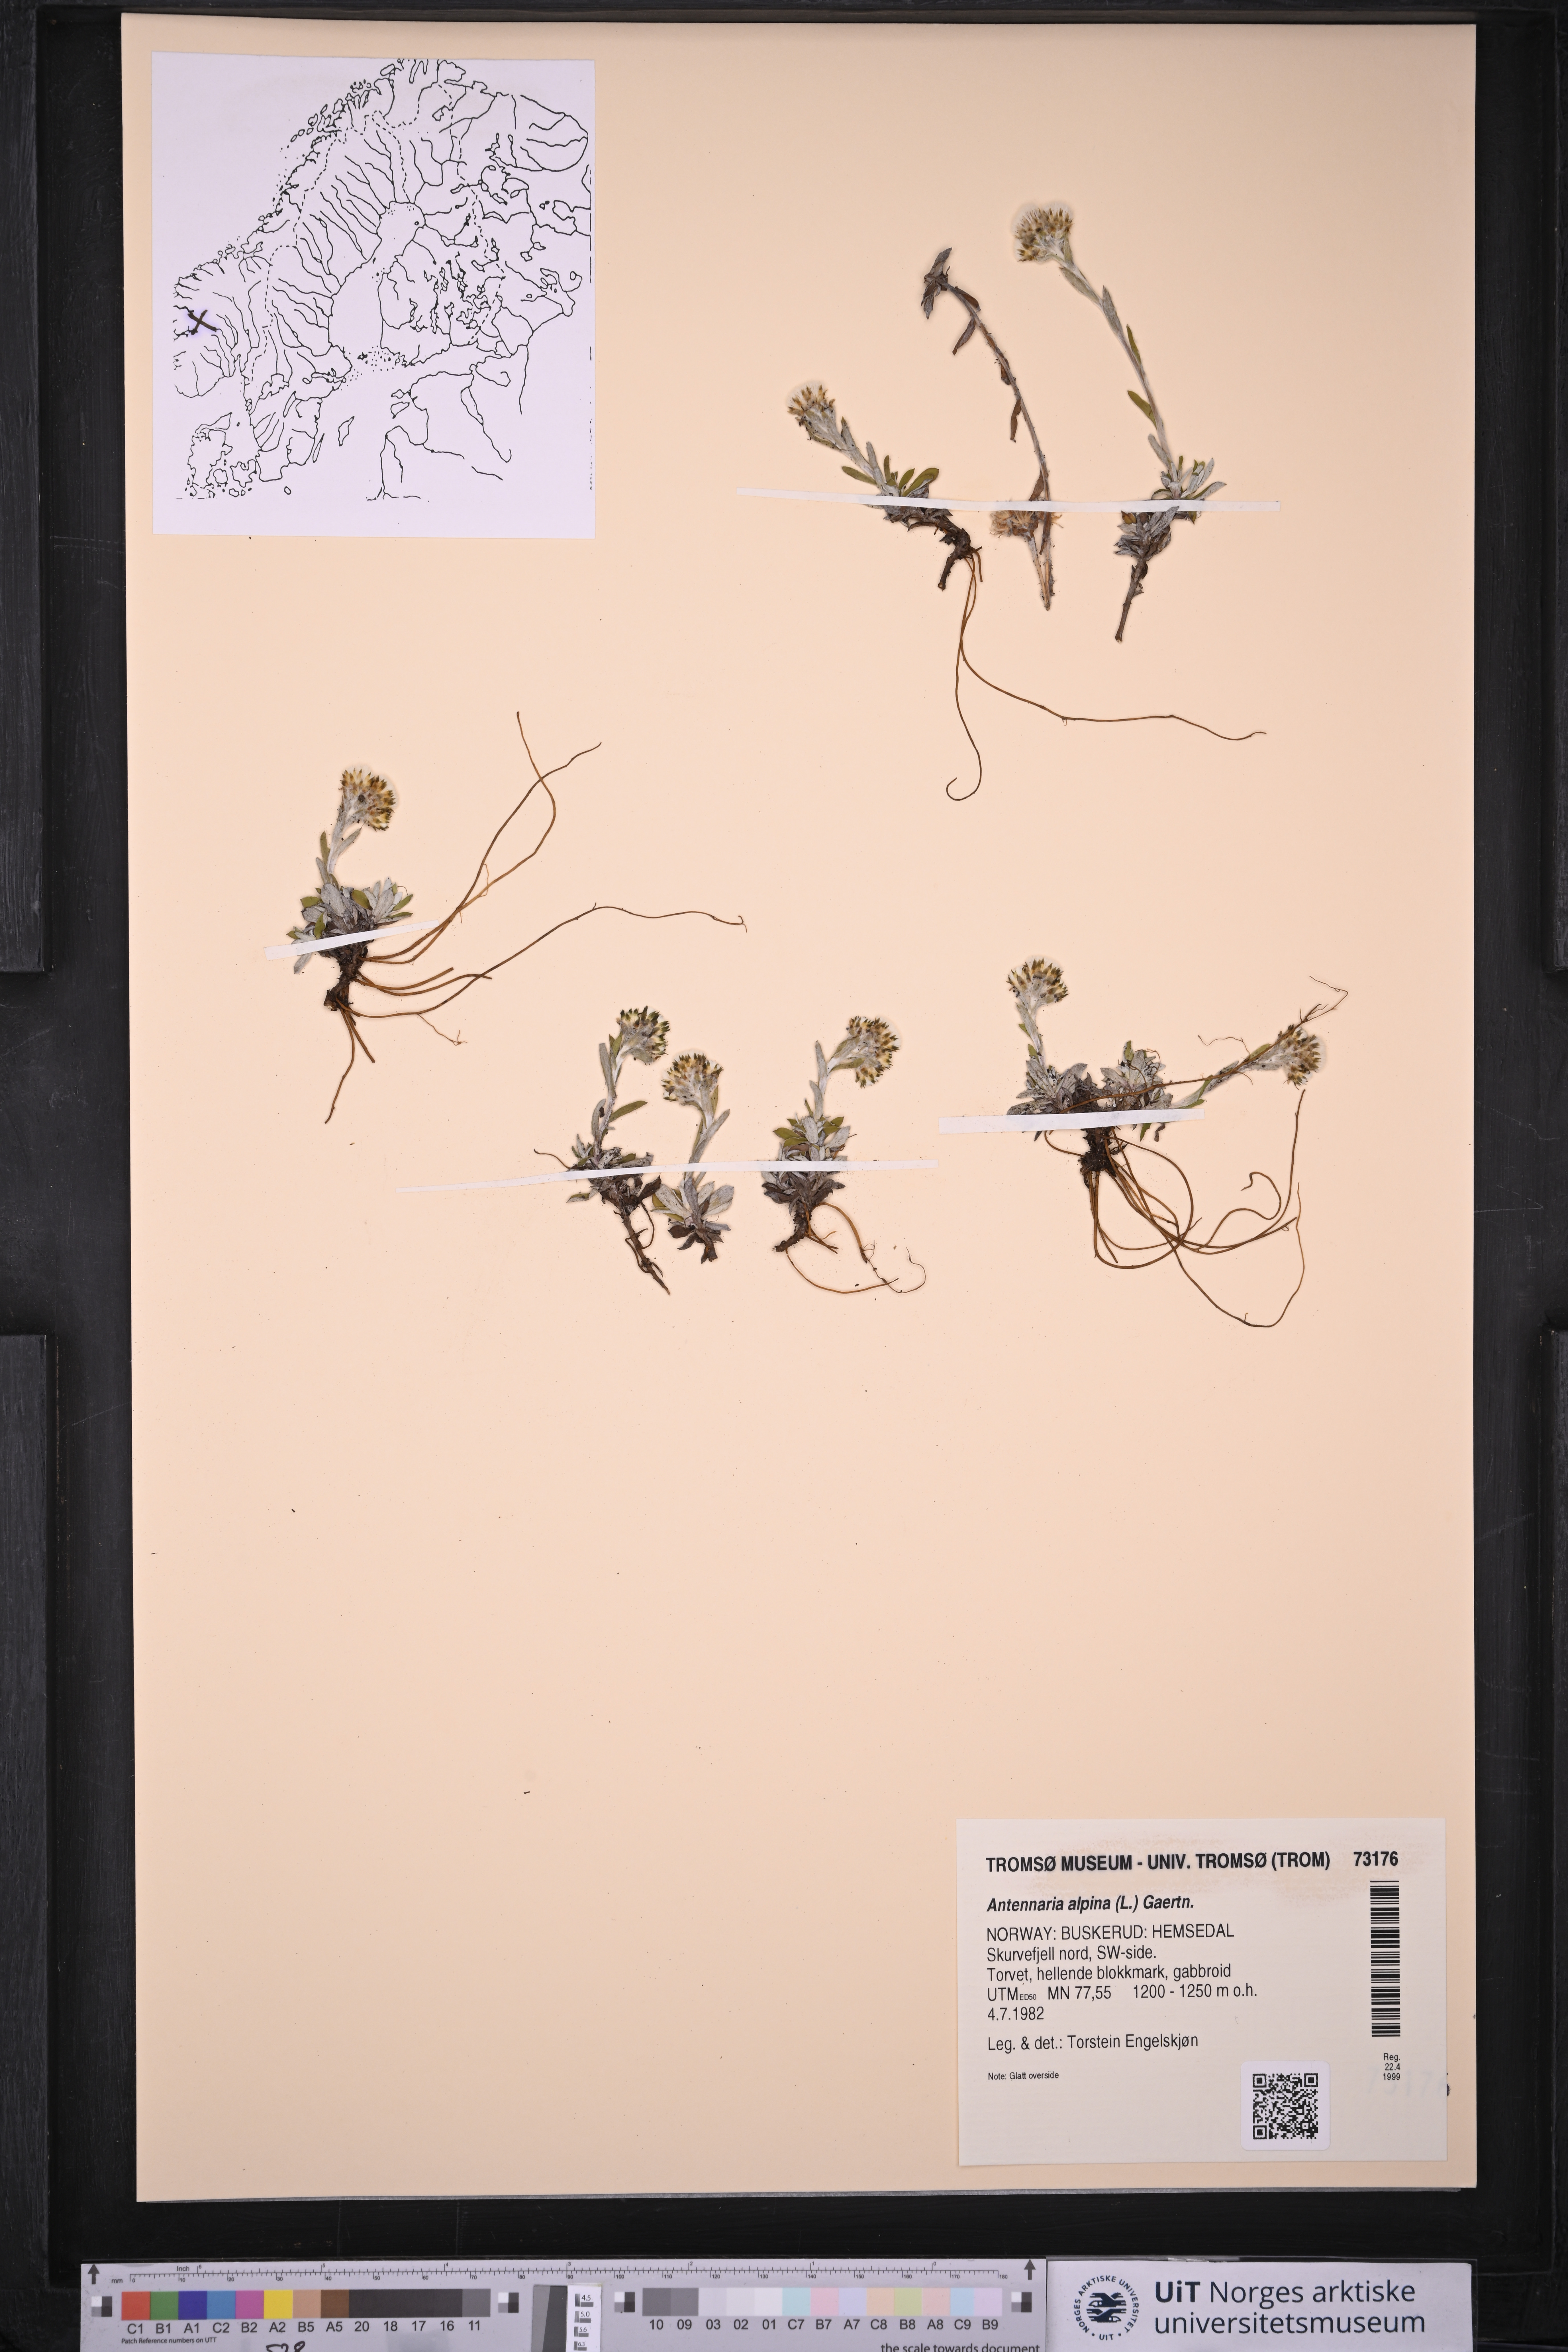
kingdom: Plantae
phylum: Tracheophyta
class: Magnoliopsida
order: Asterales
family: Asteraceae
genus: Antennaria
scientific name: Antennaria alpina
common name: Alpine pussytoes
